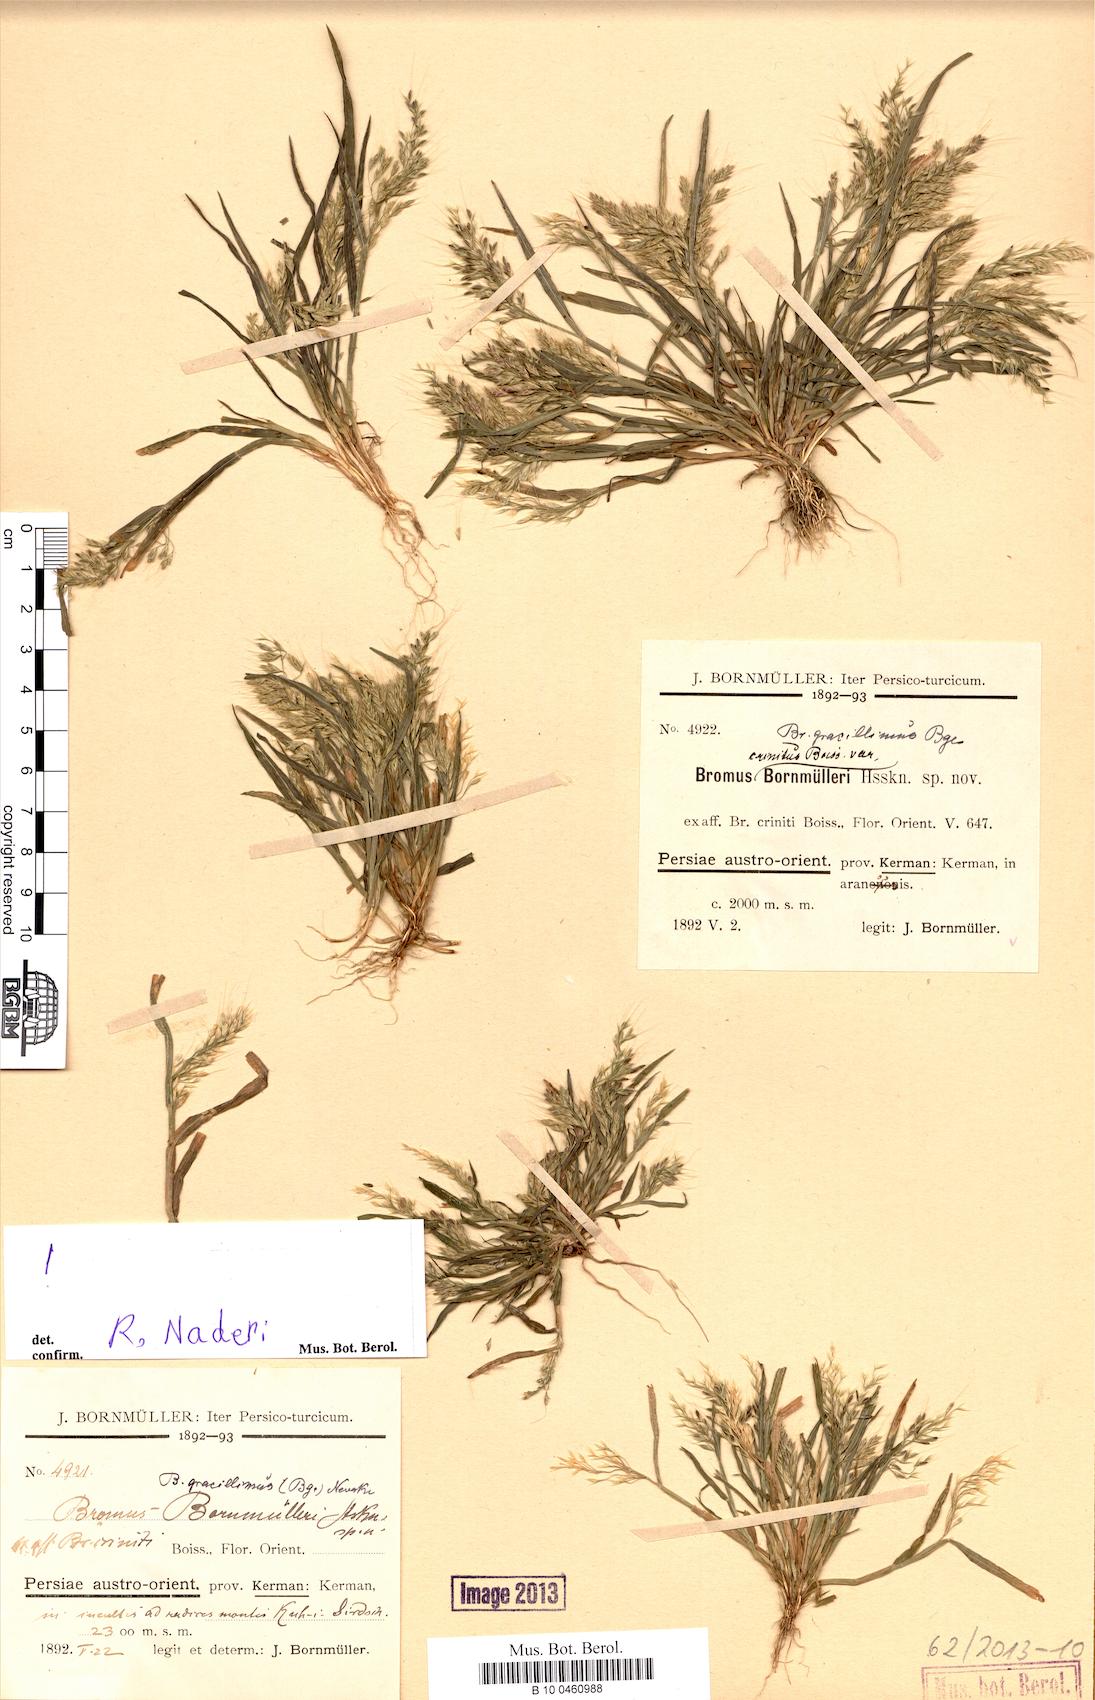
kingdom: Plantae
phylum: Tracheophyta
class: Liliopsida
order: Poales
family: Poaceae
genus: Bromus
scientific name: Bromus gracillimus
